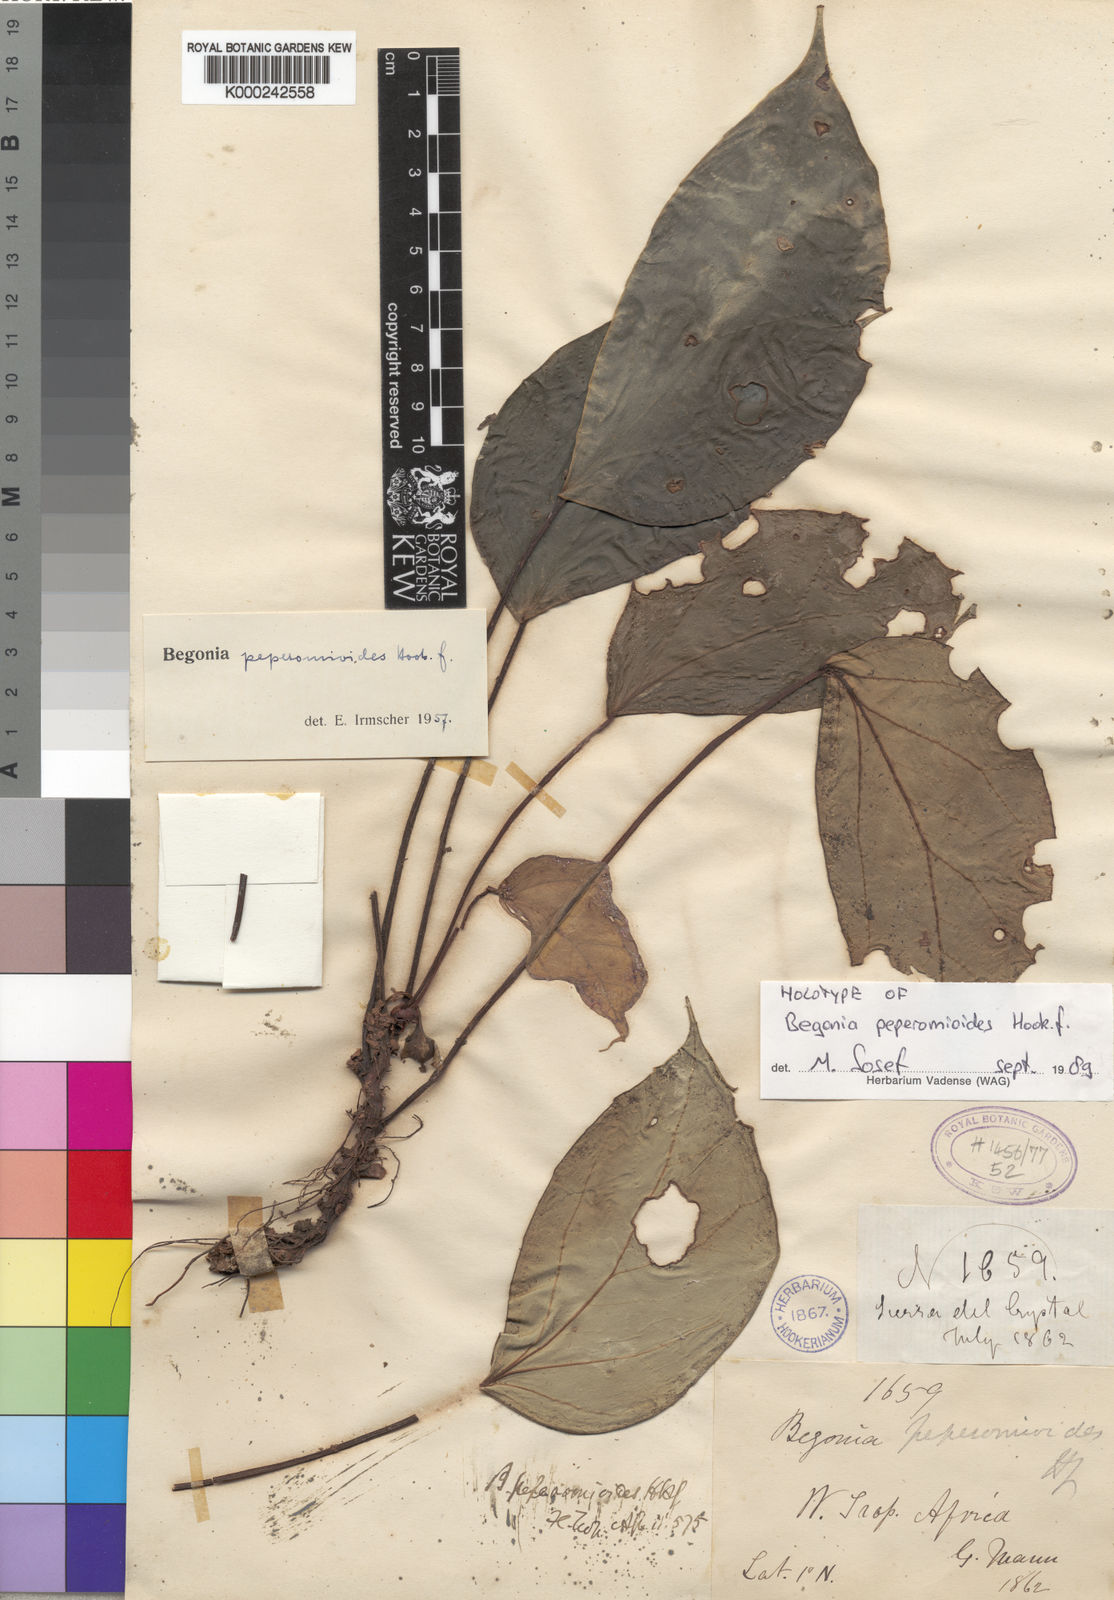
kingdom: Plantae
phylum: Tracheophyta
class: Magnoliopsida
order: Cucurbitales
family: Begoniaceae
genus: Begonia
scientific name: Begonia peperomioides
